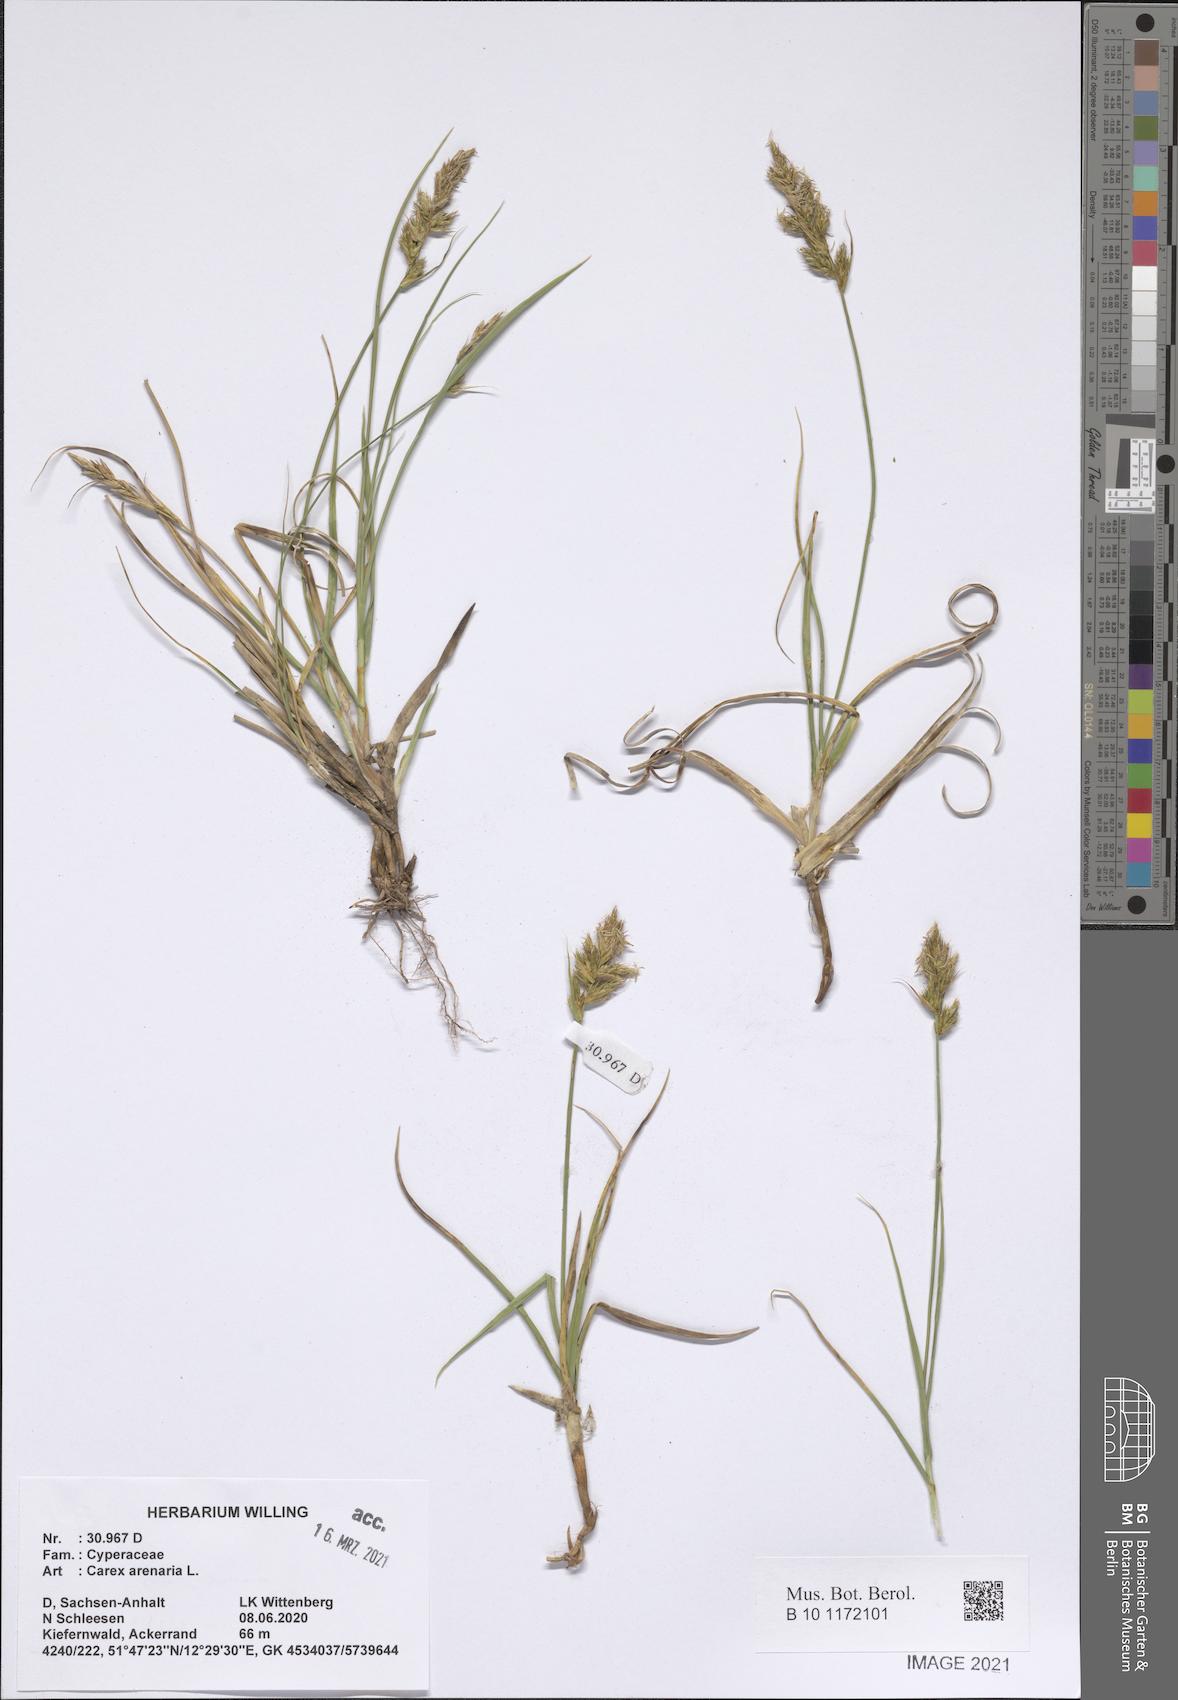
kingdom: Plantae
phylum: Tracheophyta
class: Liliopsida
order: Poales
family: Cyperaceae
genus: Carex
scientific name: Carex arenaria
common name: Sand sedge
